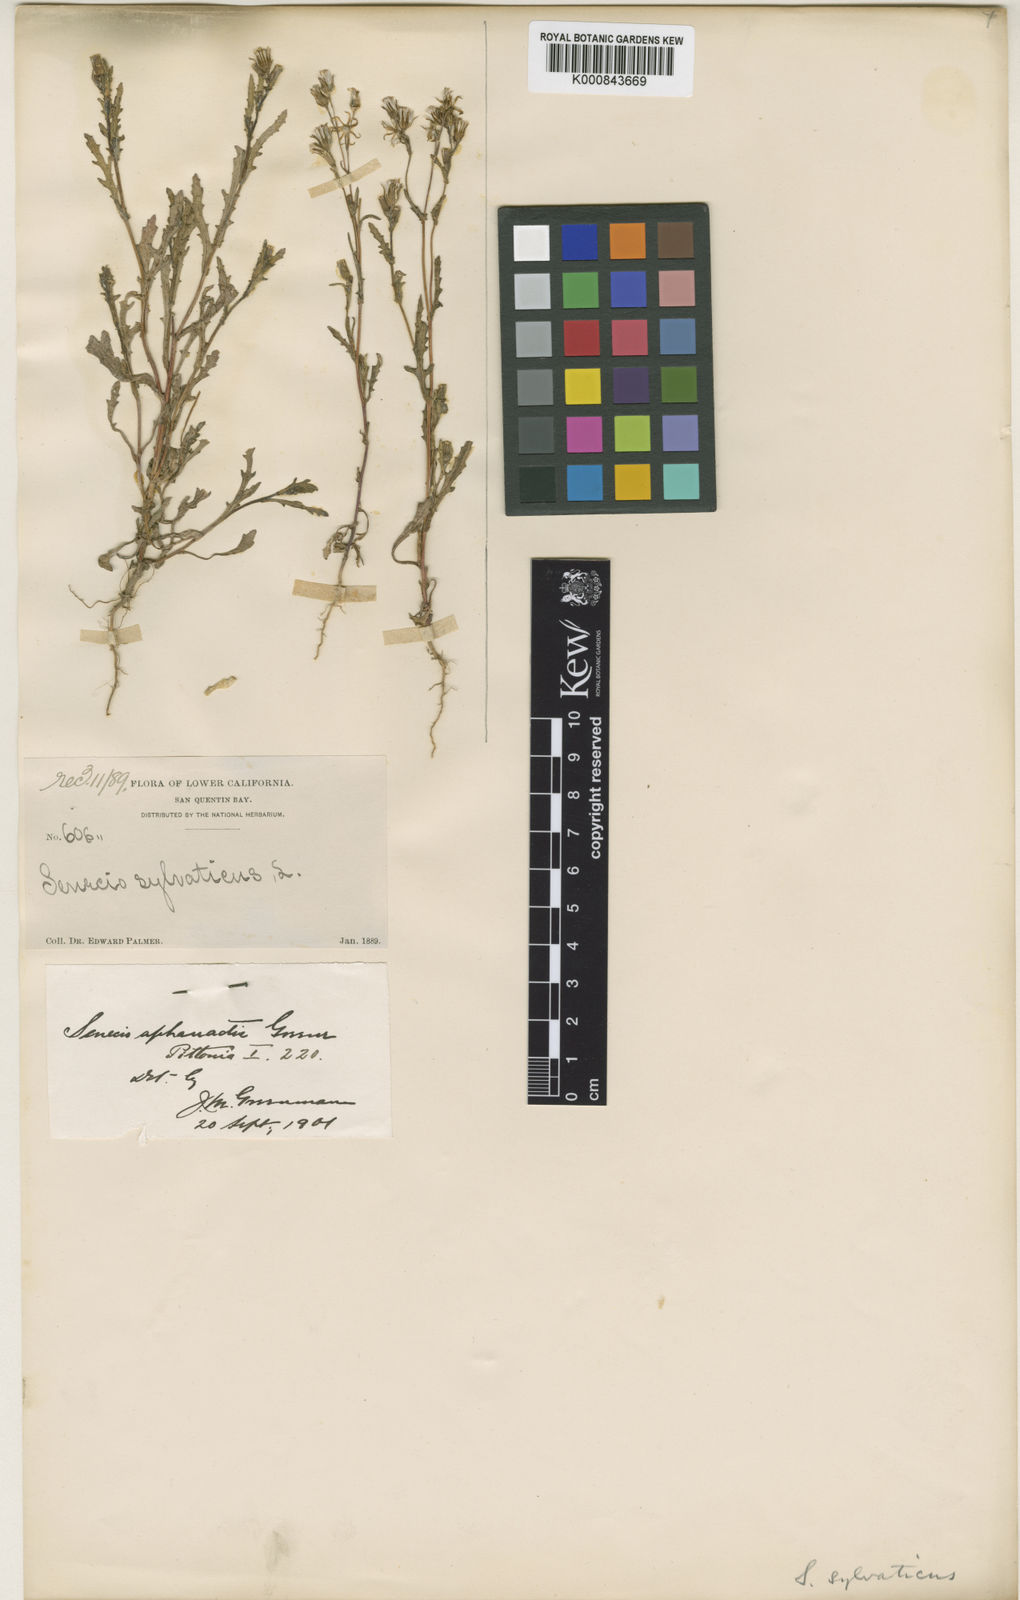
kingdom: Plantae
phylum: Tracheophyta
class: Magnoliopsida
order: Asterales
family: Asteraceae
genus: Senecio
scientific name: Senecio aphanactis
